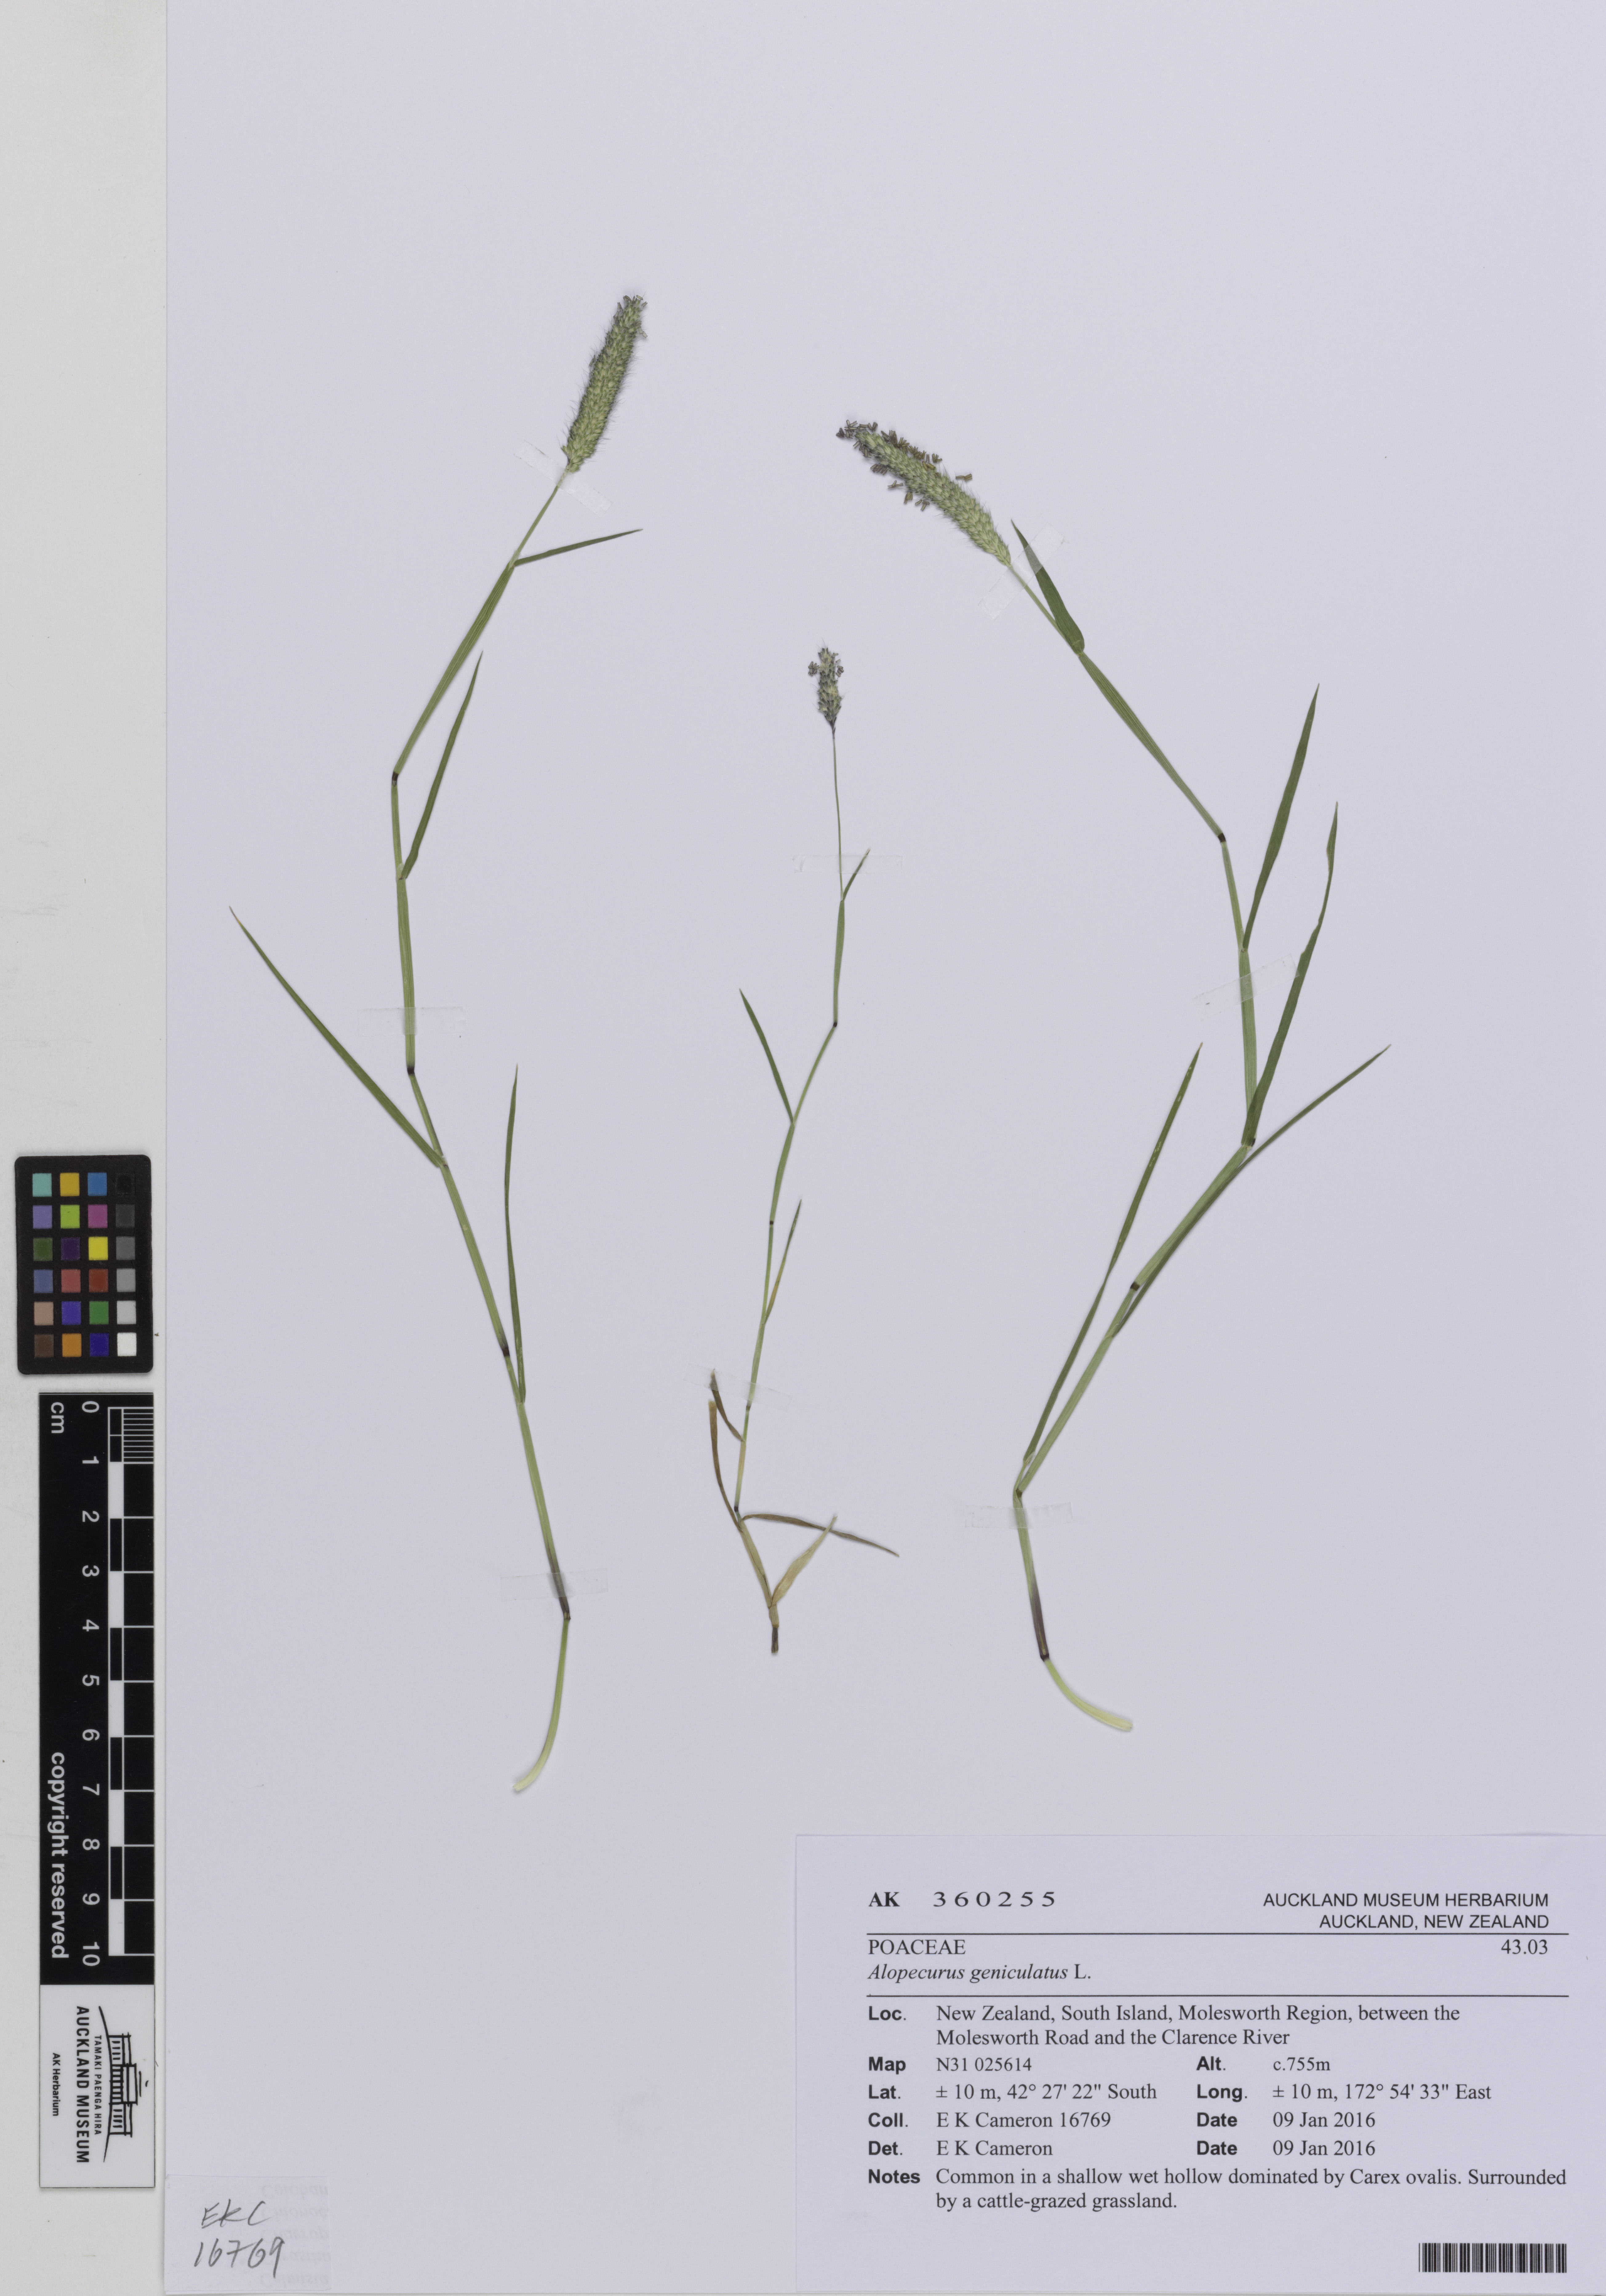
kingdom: Plantae
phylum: Tracheophyta
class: Liliopsida
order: Poales
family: Poaceae
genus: Alopecurus
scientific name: Alopecurus geniculatus
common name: Water foxtail
